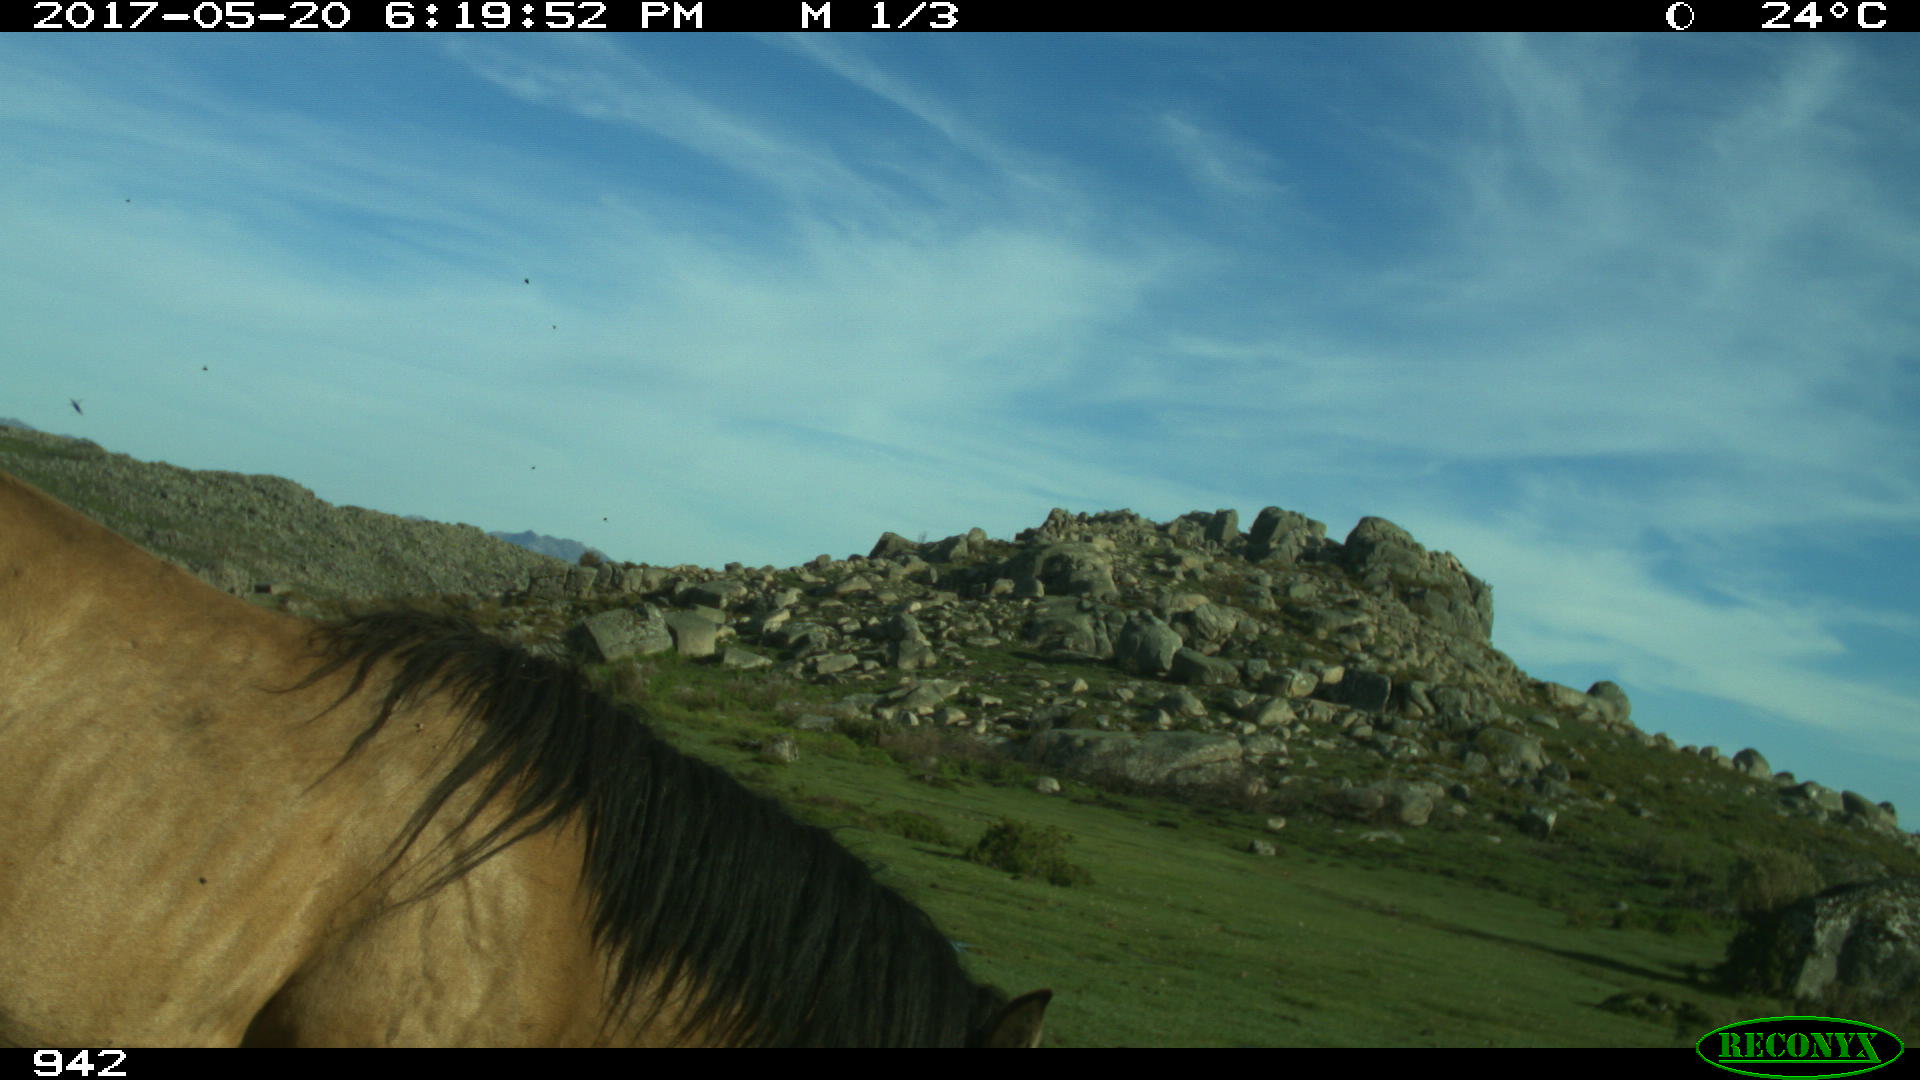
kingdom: Animalia
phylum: Chordata
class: Mammalia
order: Perissodactyla
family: Equidae
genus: Equus
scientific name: Equus caballus
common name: Horse
